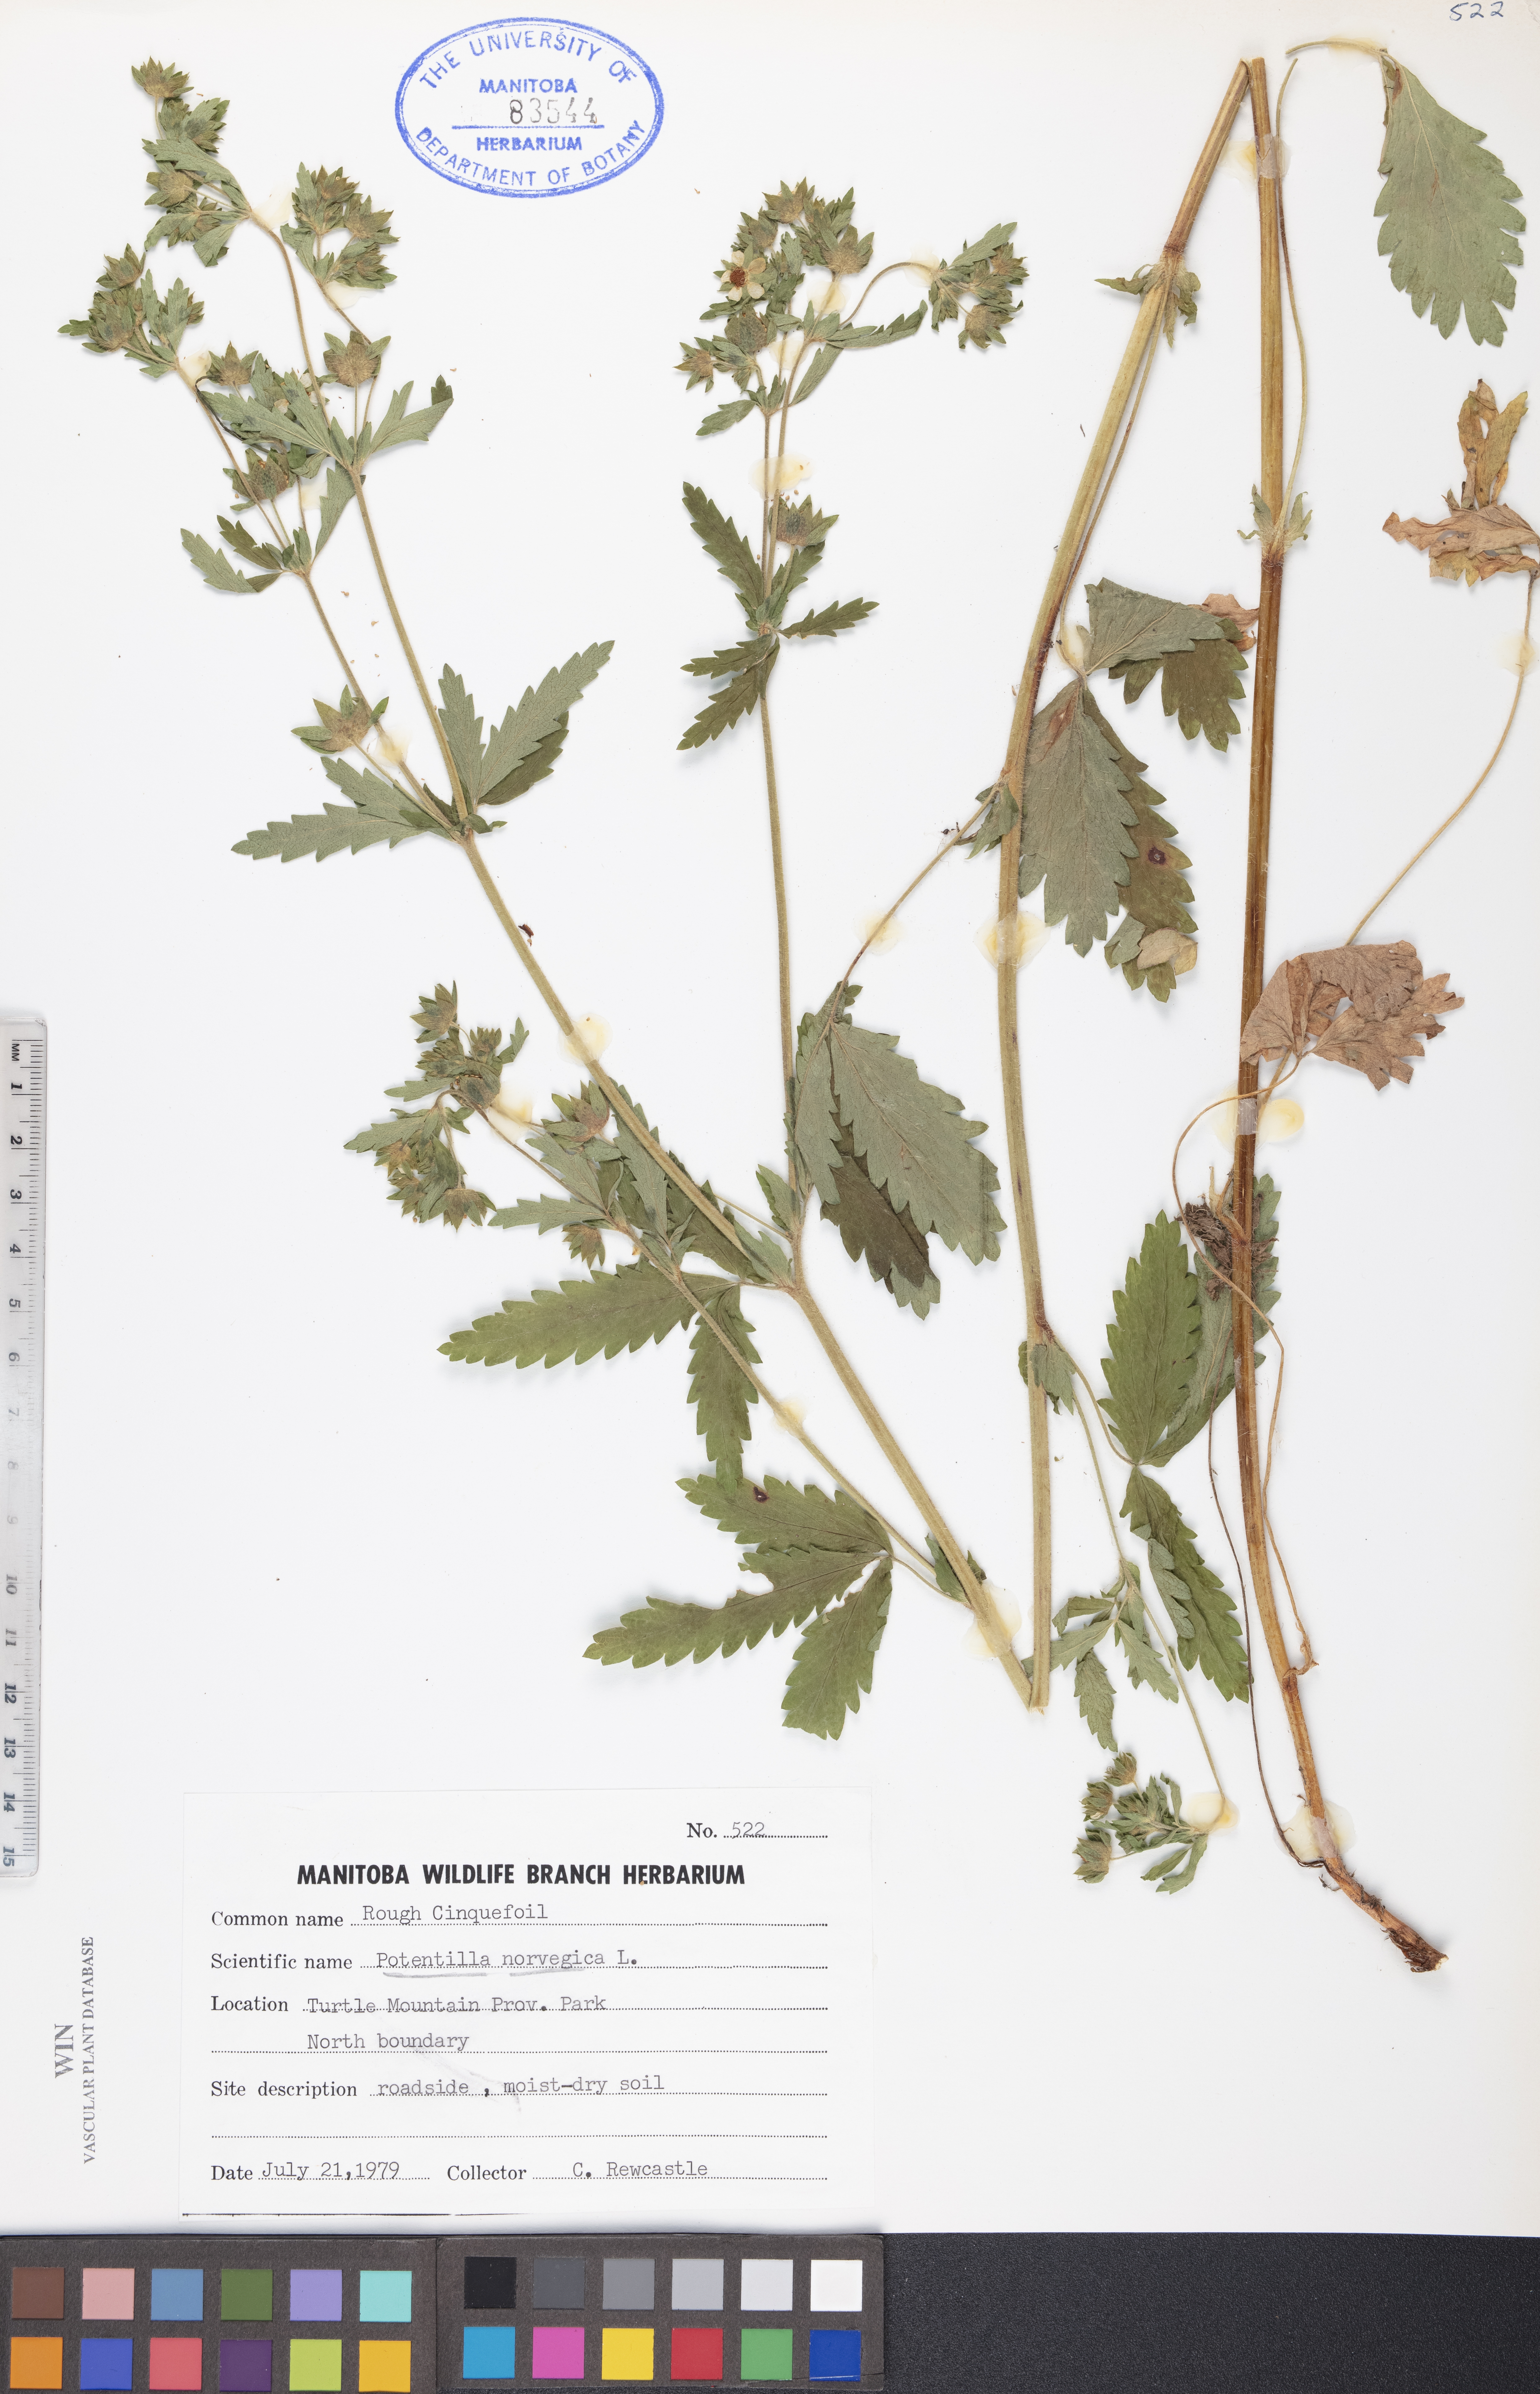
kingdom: Plantae
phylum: Tracheophyta
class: Magnoliopsida
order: Rosales
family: Rosaceae
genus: Potentilla
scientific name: Potentilla norvegica
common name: Ternate-leaved cinquefoil
